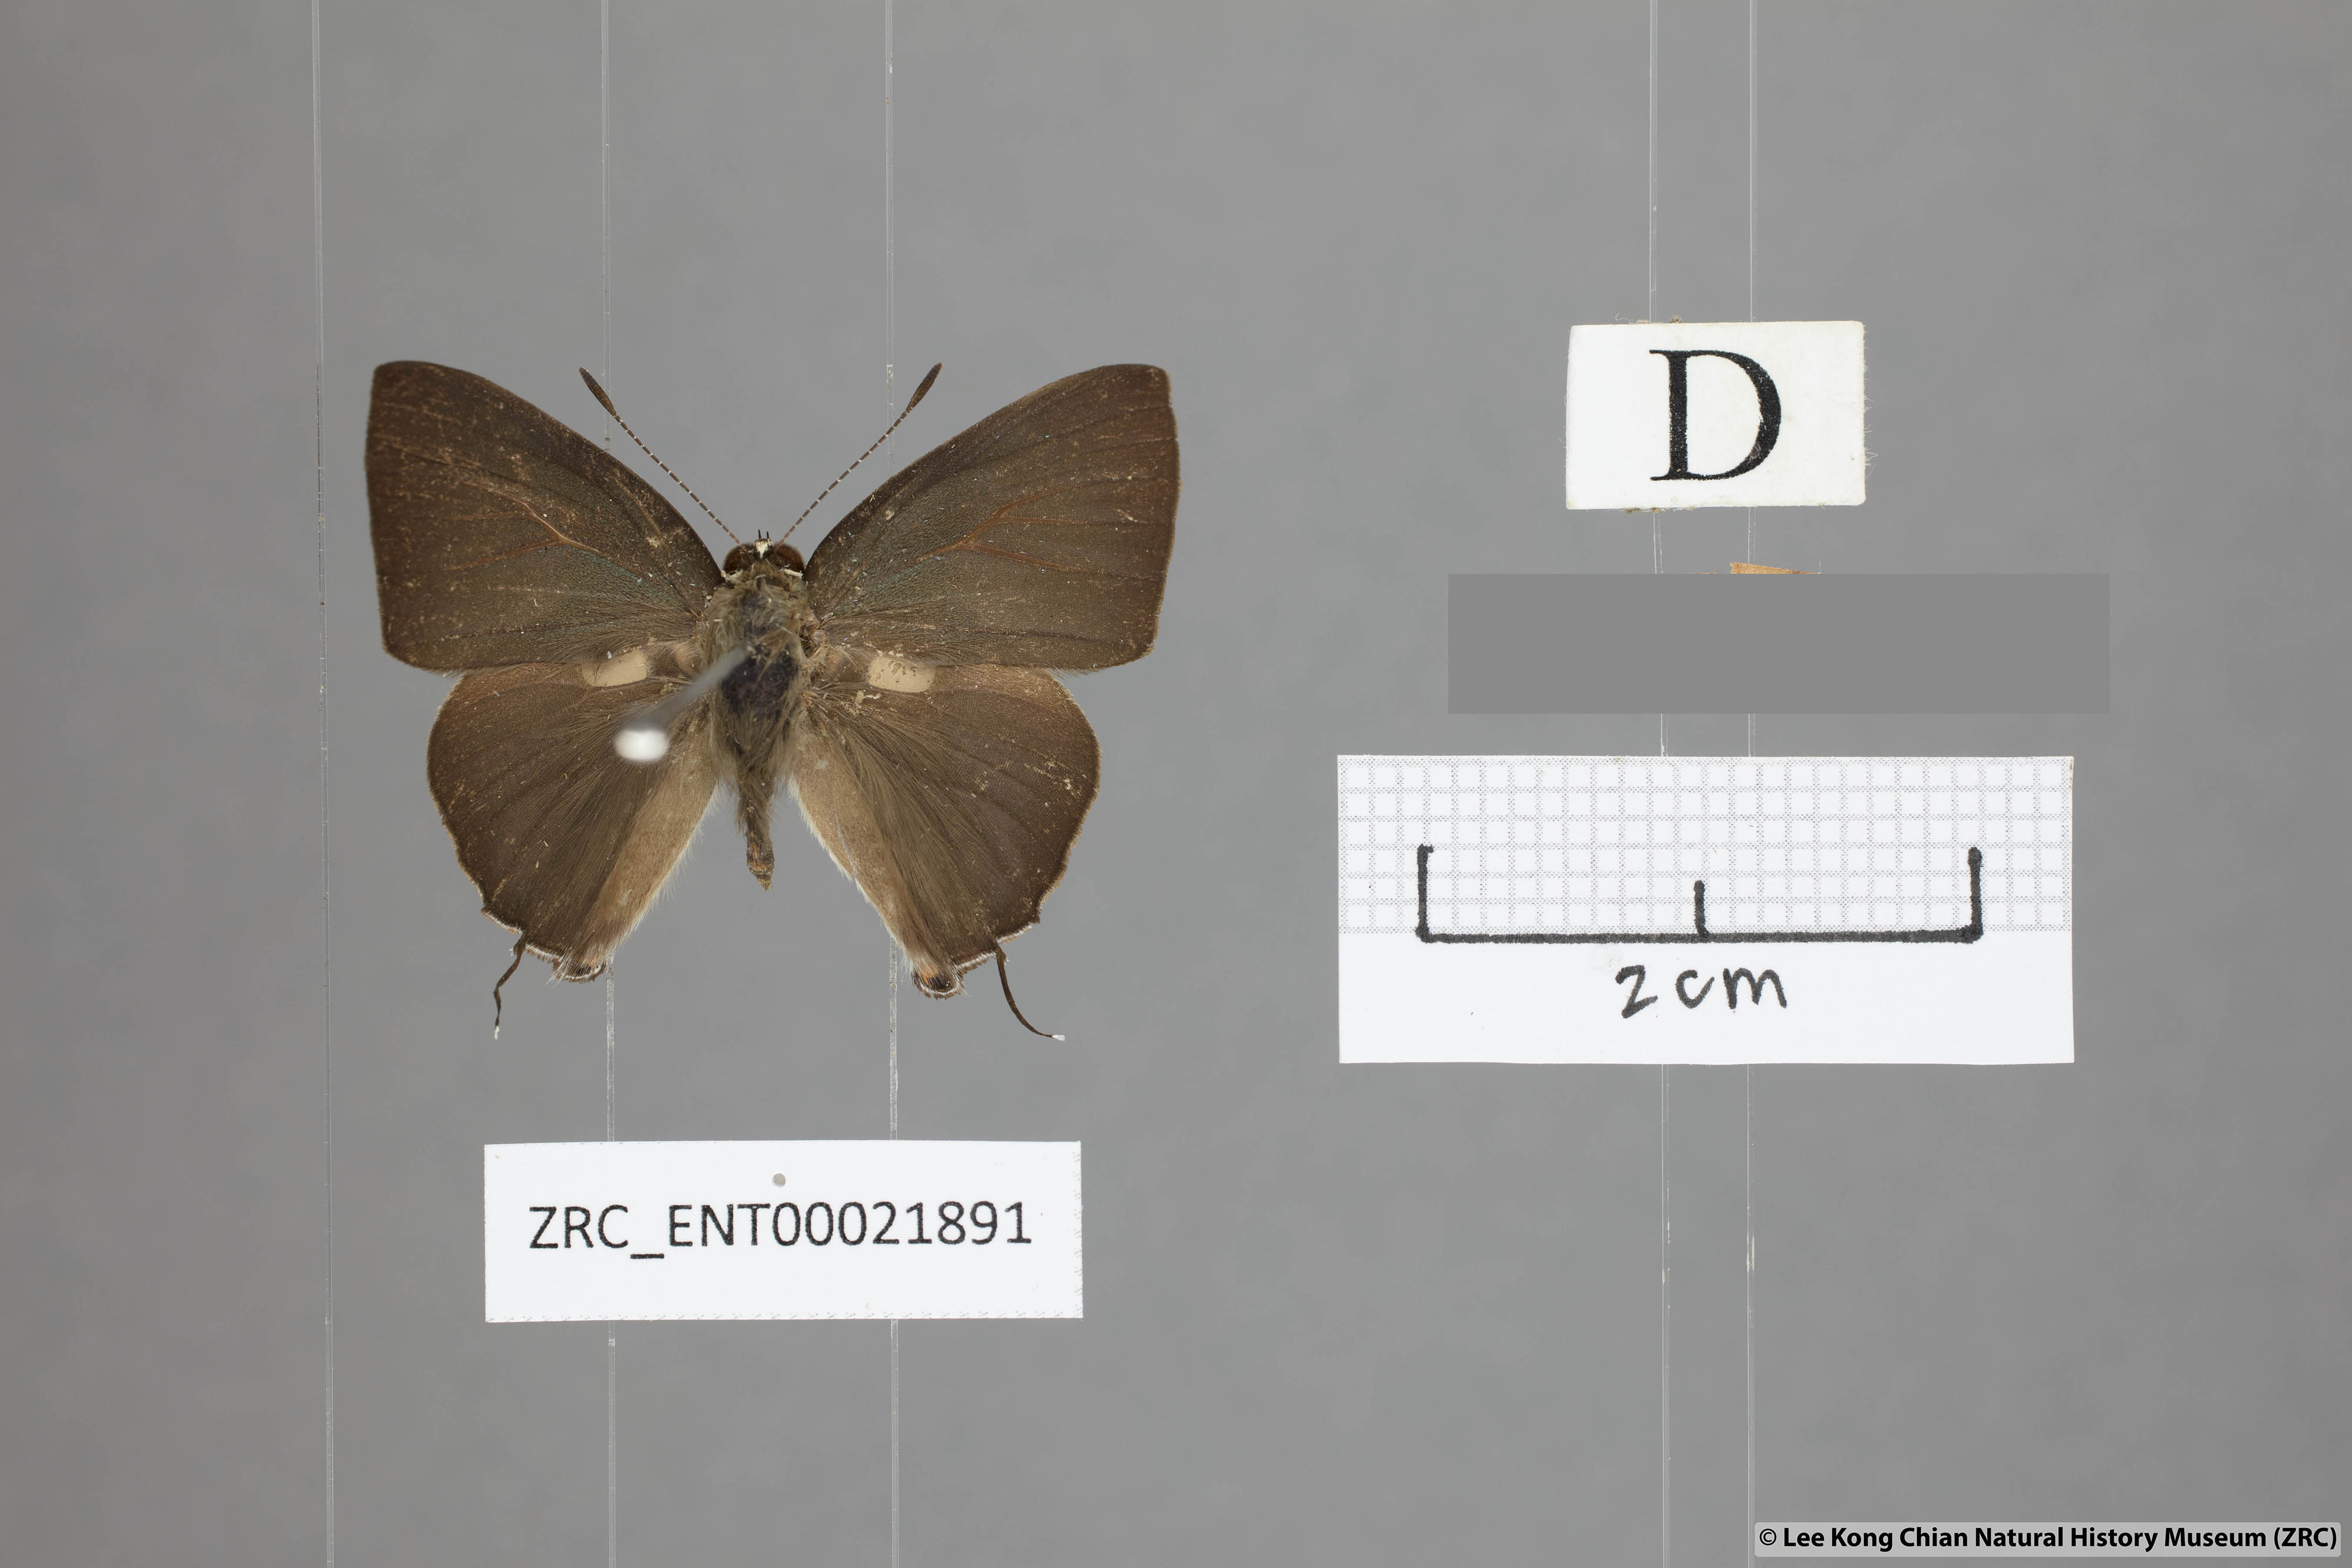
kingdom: Animalia
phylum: Arthropoda
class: Insecta
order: Lepidoptera
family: Lycaenidae
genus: Rapala
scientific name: Rapala scintilla
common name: Scarce slate flash
